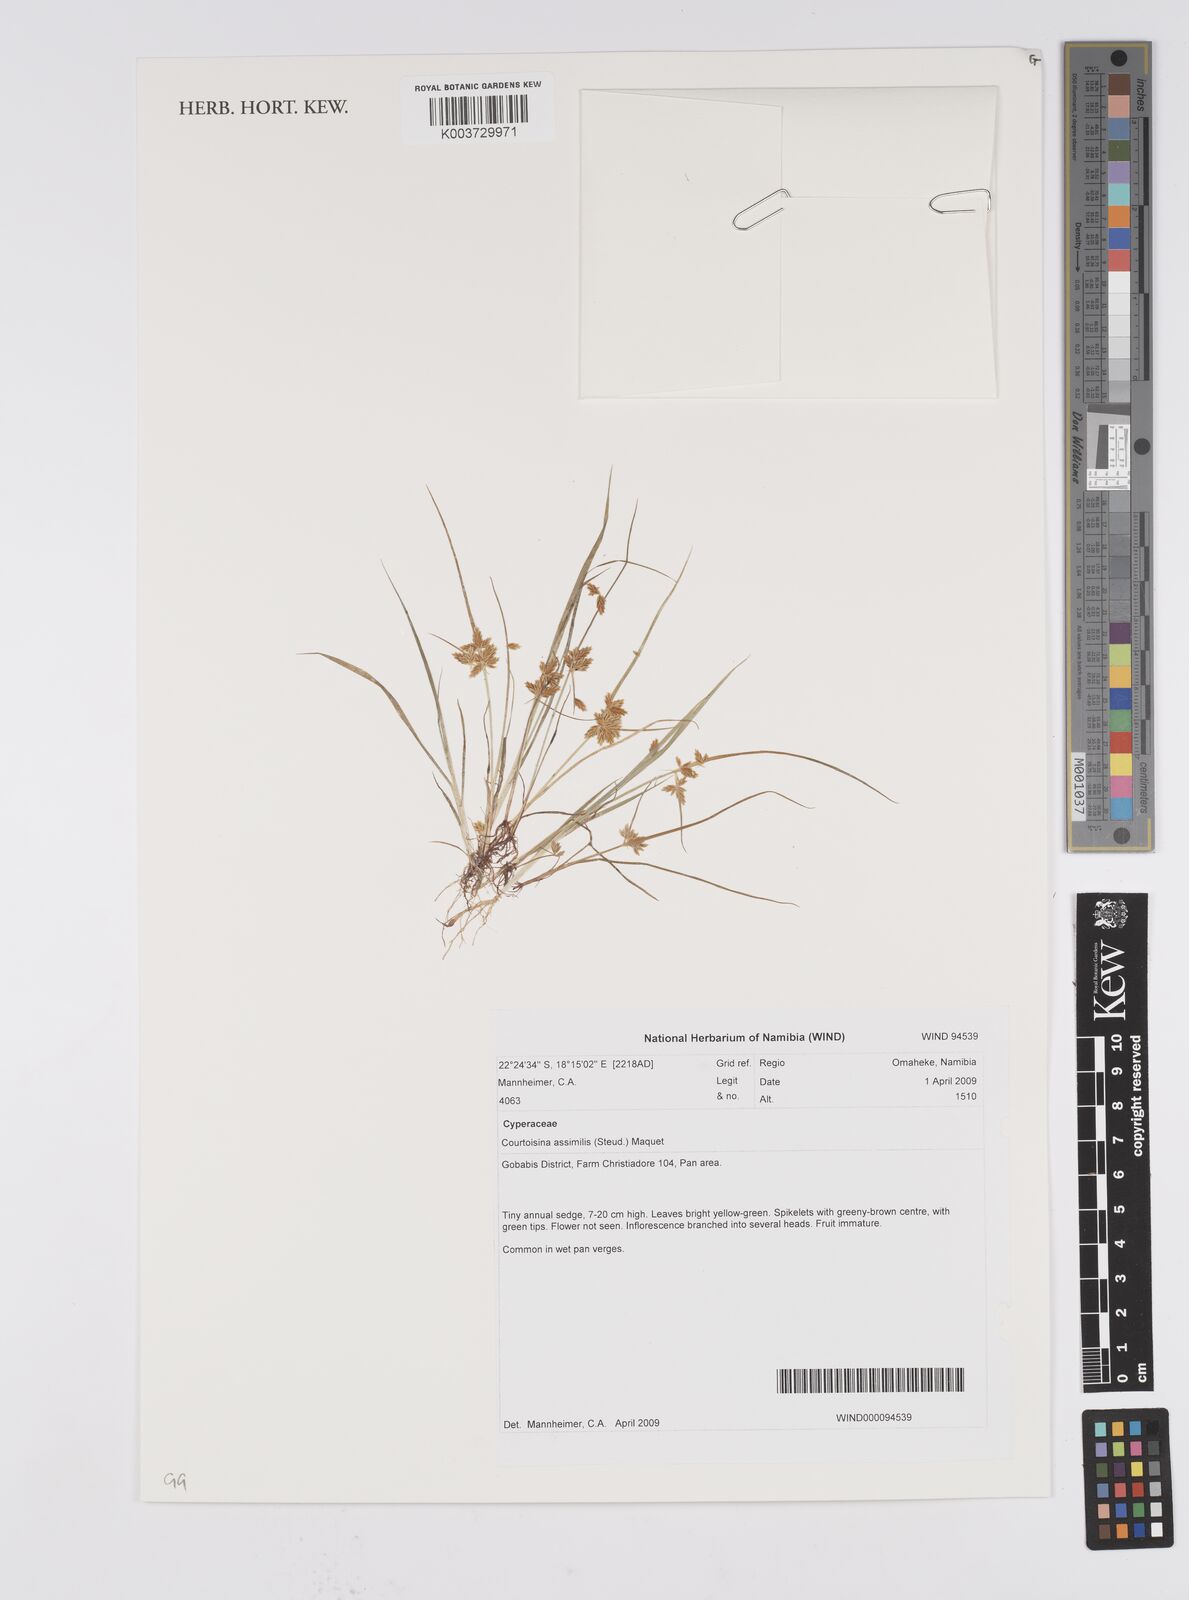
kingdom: Plantae
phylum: Tracheophyta
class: Liliopsida
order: Poales
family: Cyperaceae
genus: Cyperus
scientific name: Cyperus assimilis
